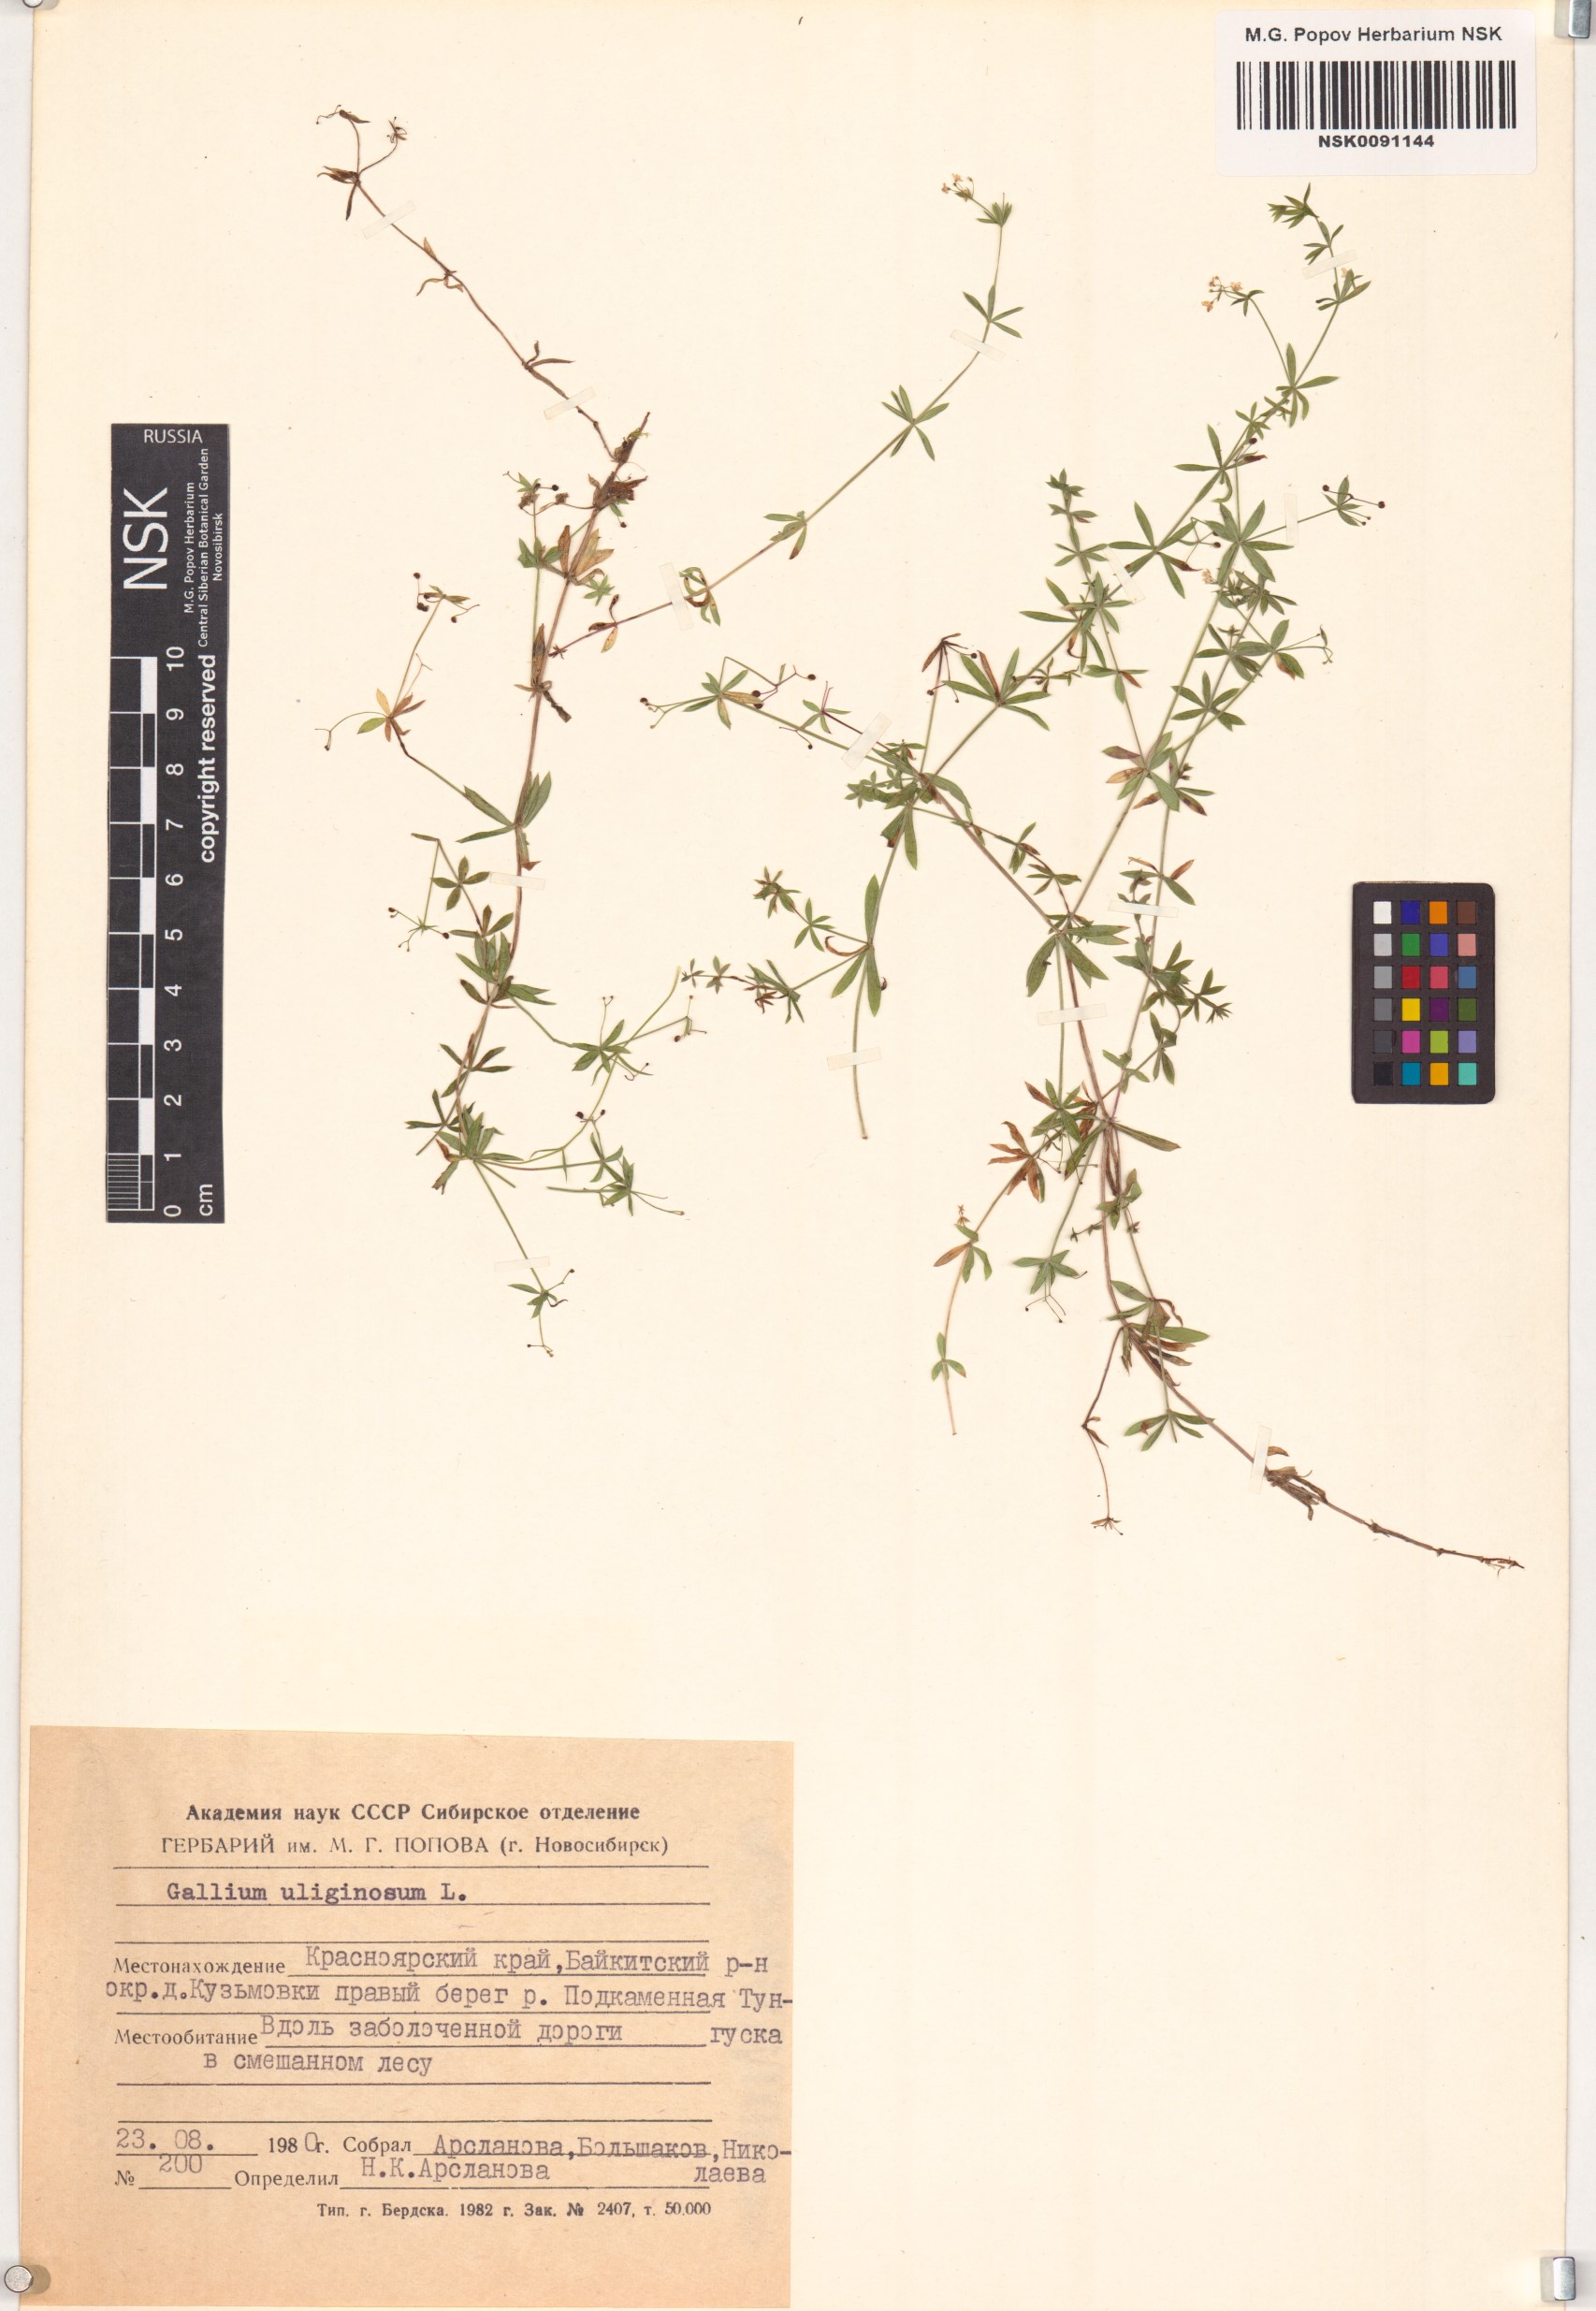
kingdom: Plantae
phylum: Tracheophyta
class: Magnoliopsida
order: Gentianales
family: Rubiaceae
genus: Galium
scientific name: Galium uliginosum
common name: Fen bedstraw
